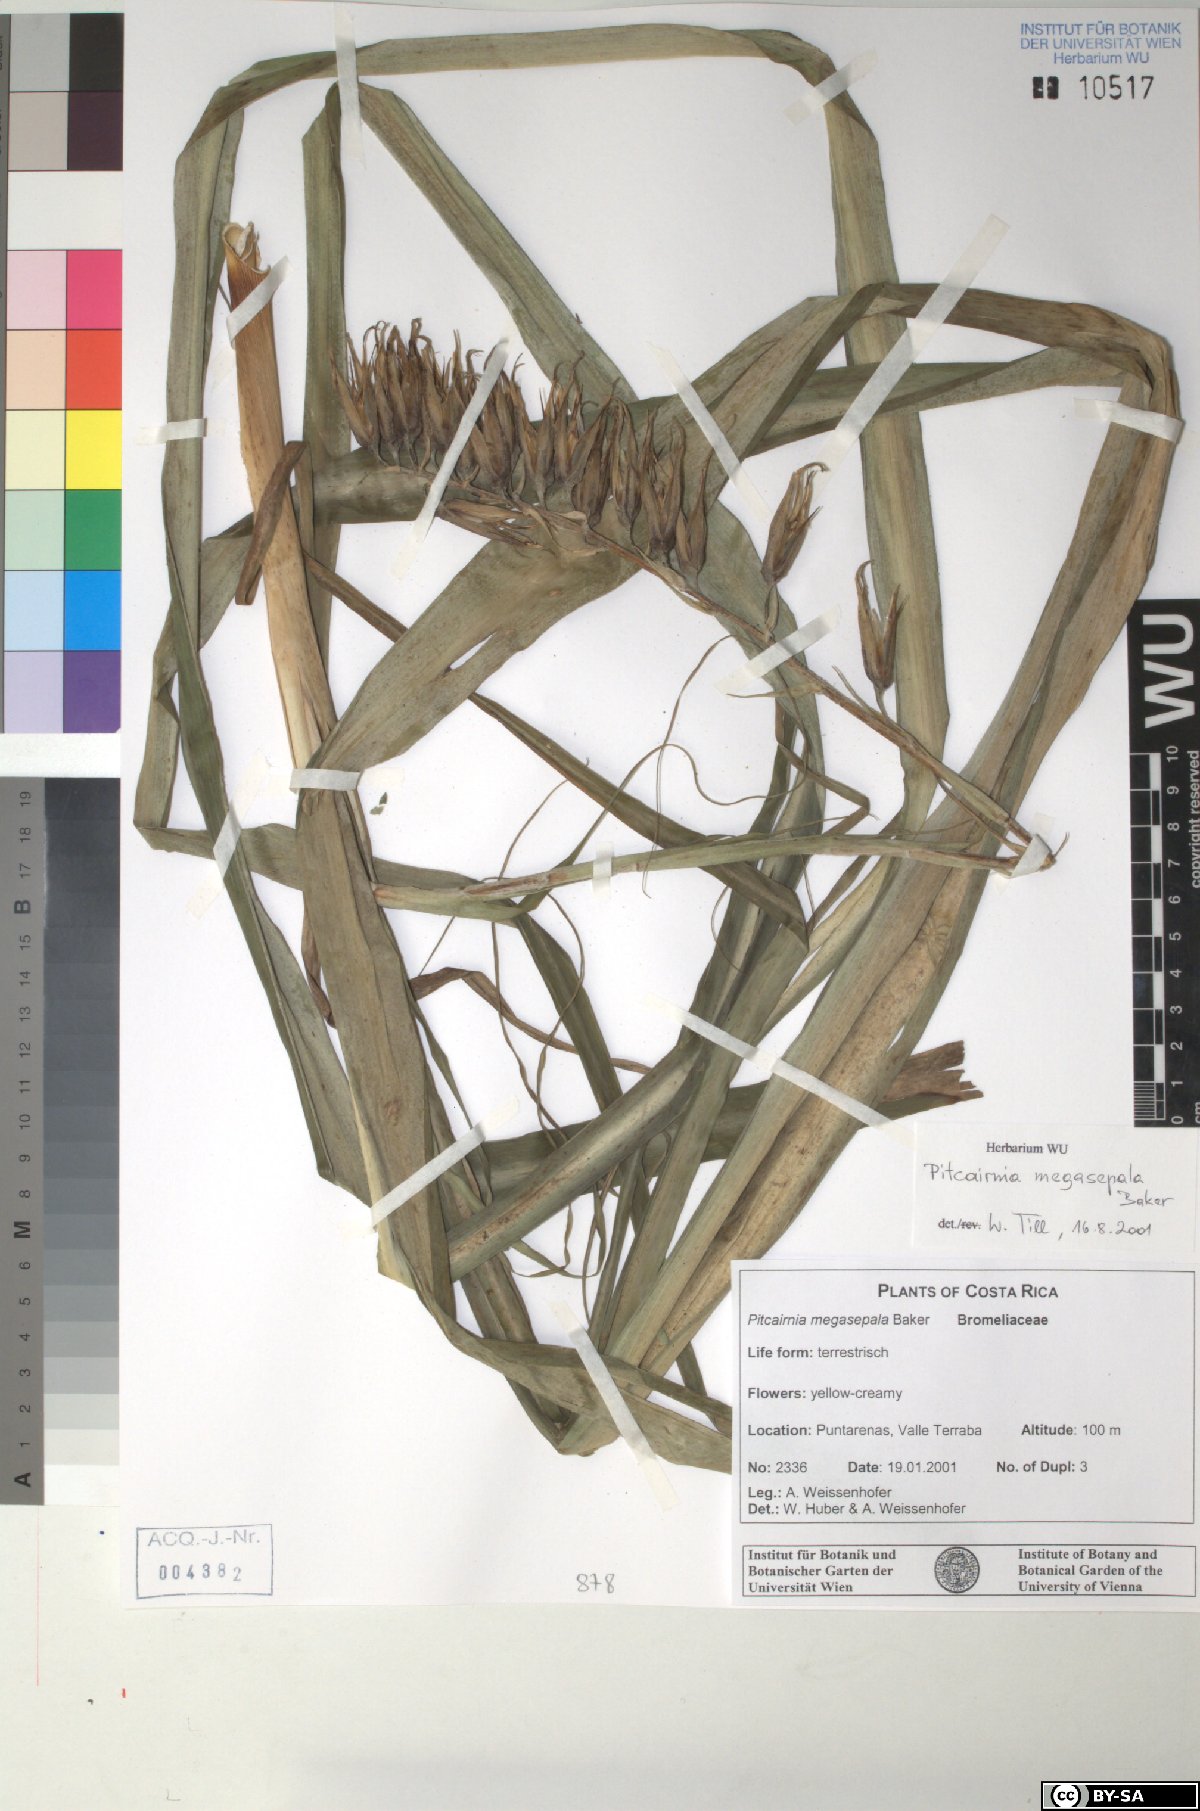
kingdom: Plantae
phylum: Tracheophyta
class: Liliopsida
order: Poales
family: Bromeliaceae
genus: Pitcairnia
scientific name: Pitcairnia megasepala
